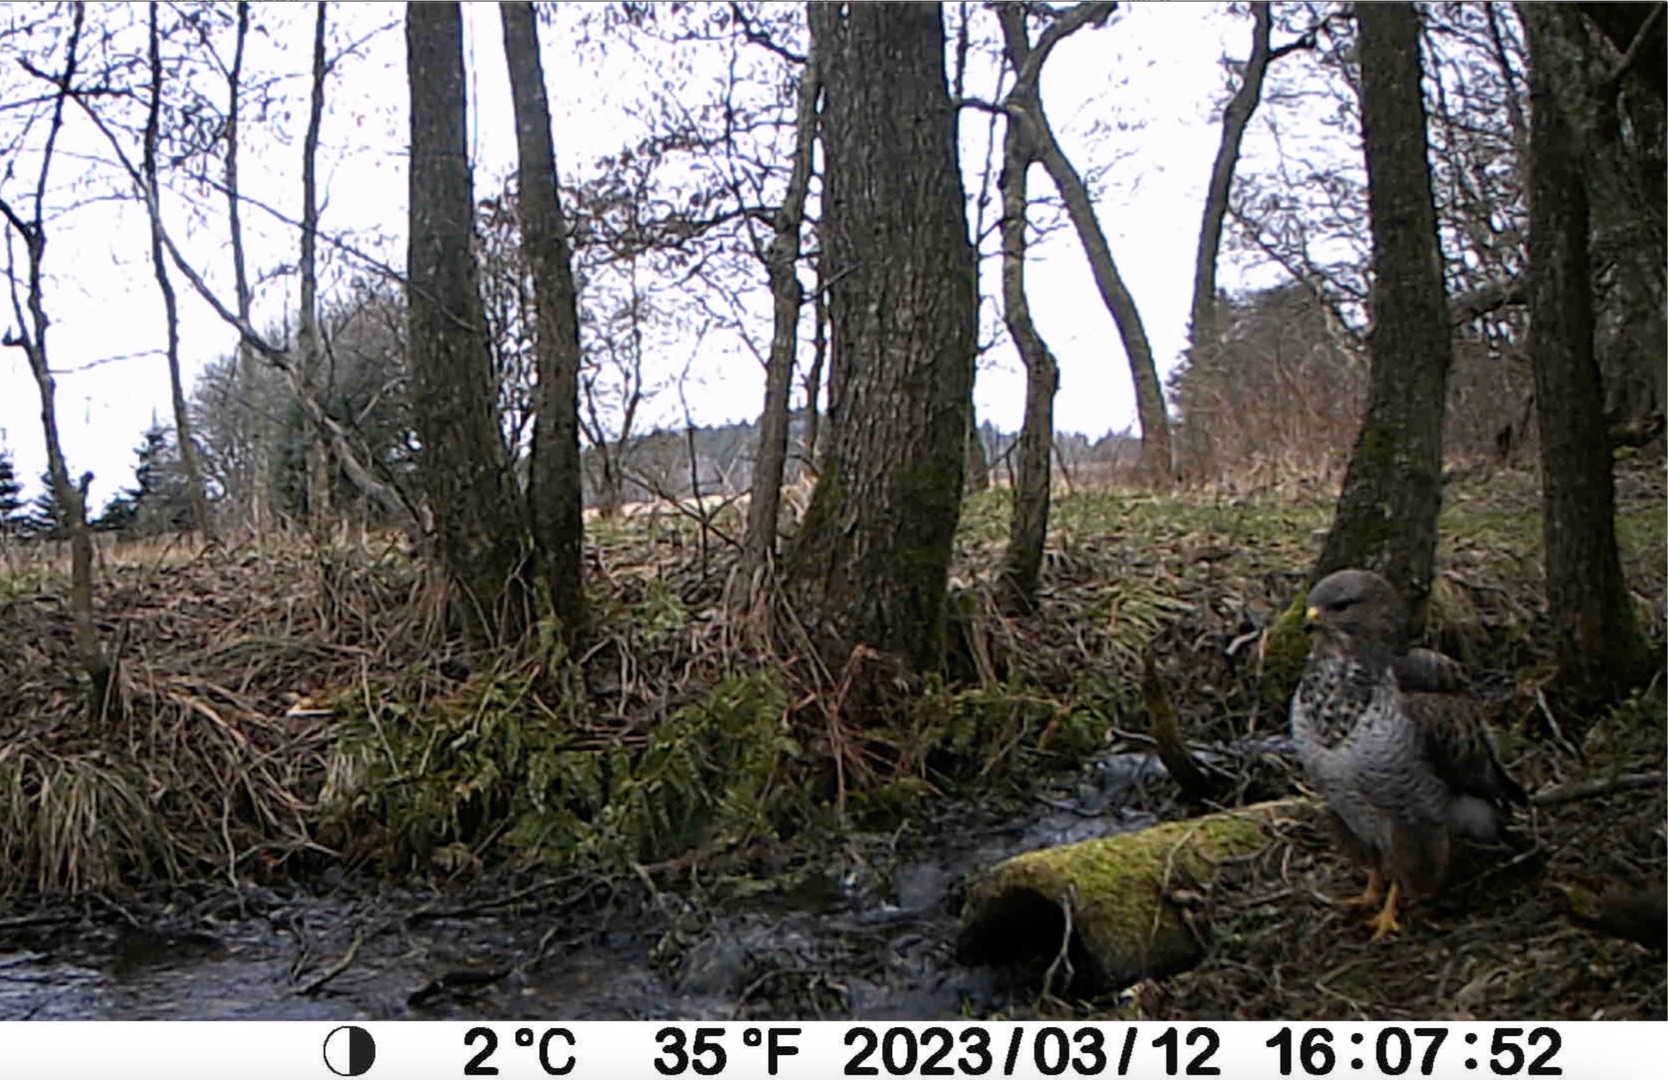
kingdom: Animalia
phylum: Chordata
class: Aves
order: Accipitriformes
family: Accipitridae
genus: Buteo
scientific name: Buteo buteo
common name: Musvåge
